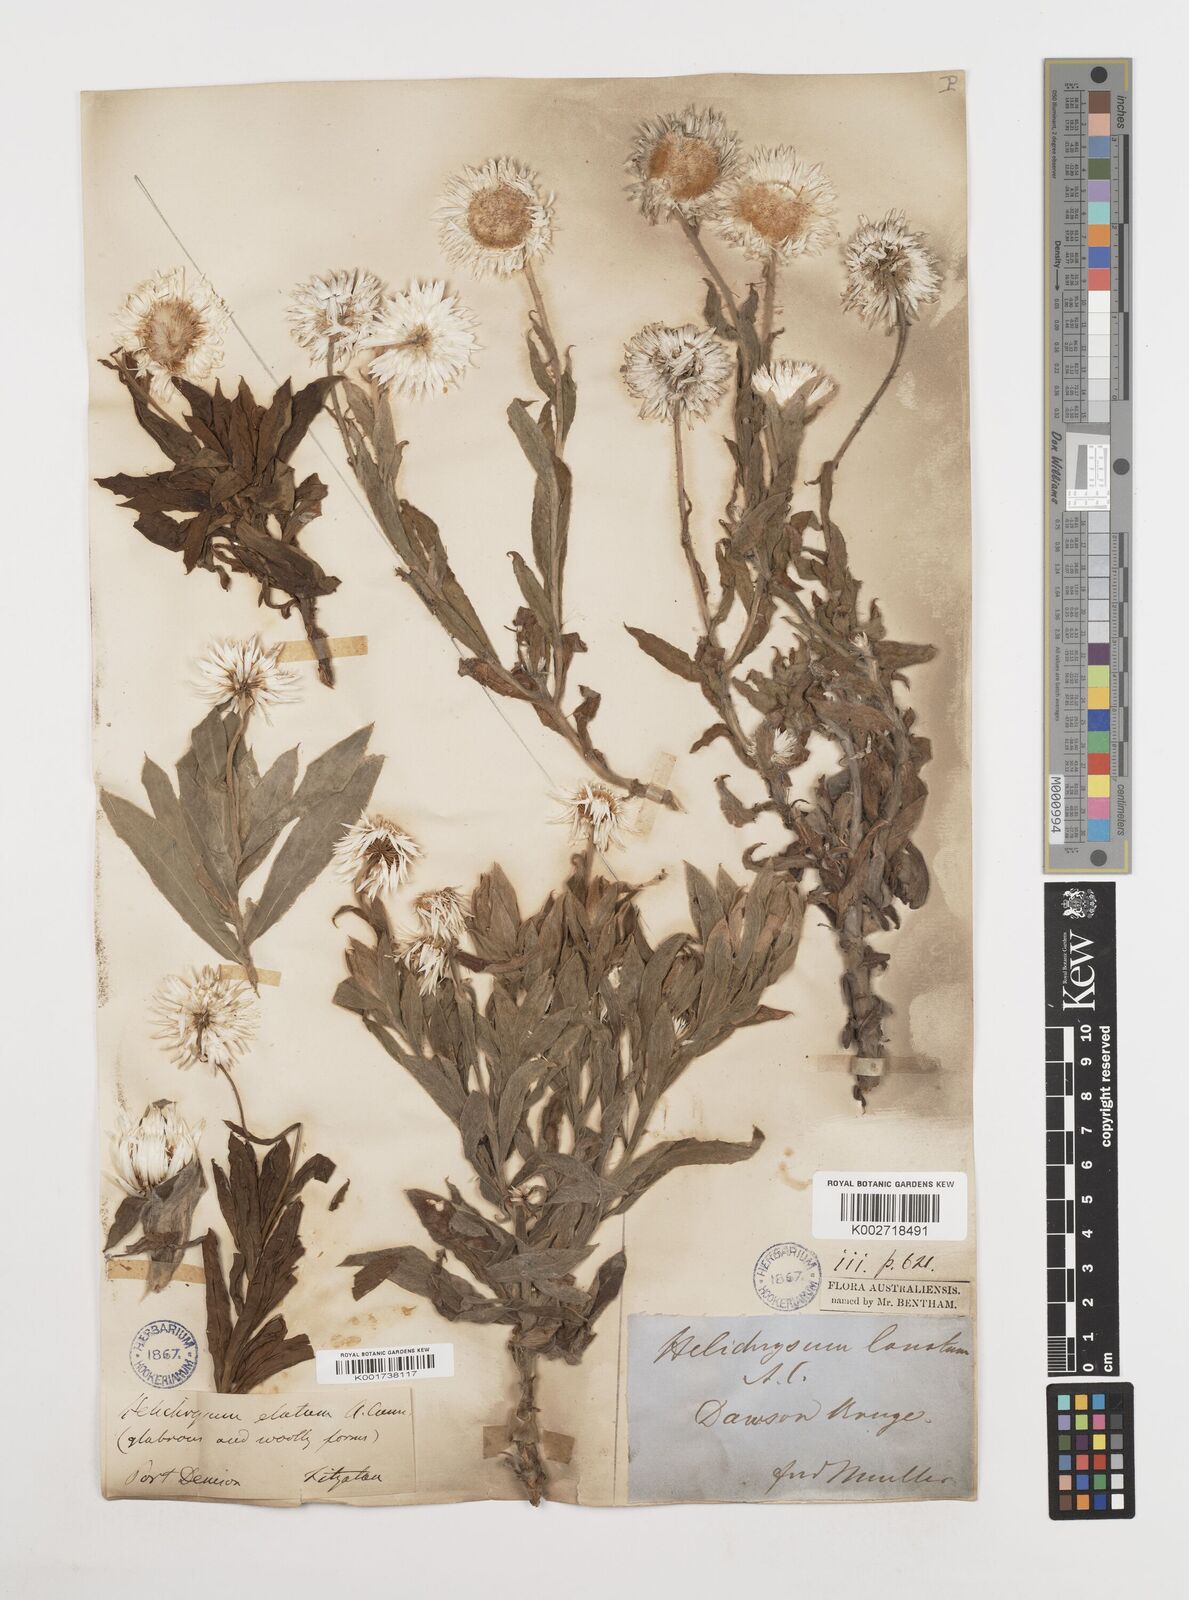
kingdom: Plantae
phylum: Tracheophyta
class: Magnoliopsida
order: Asterales
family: Asteraceae
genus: Leucozoma
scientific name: Leucozoma elatum
